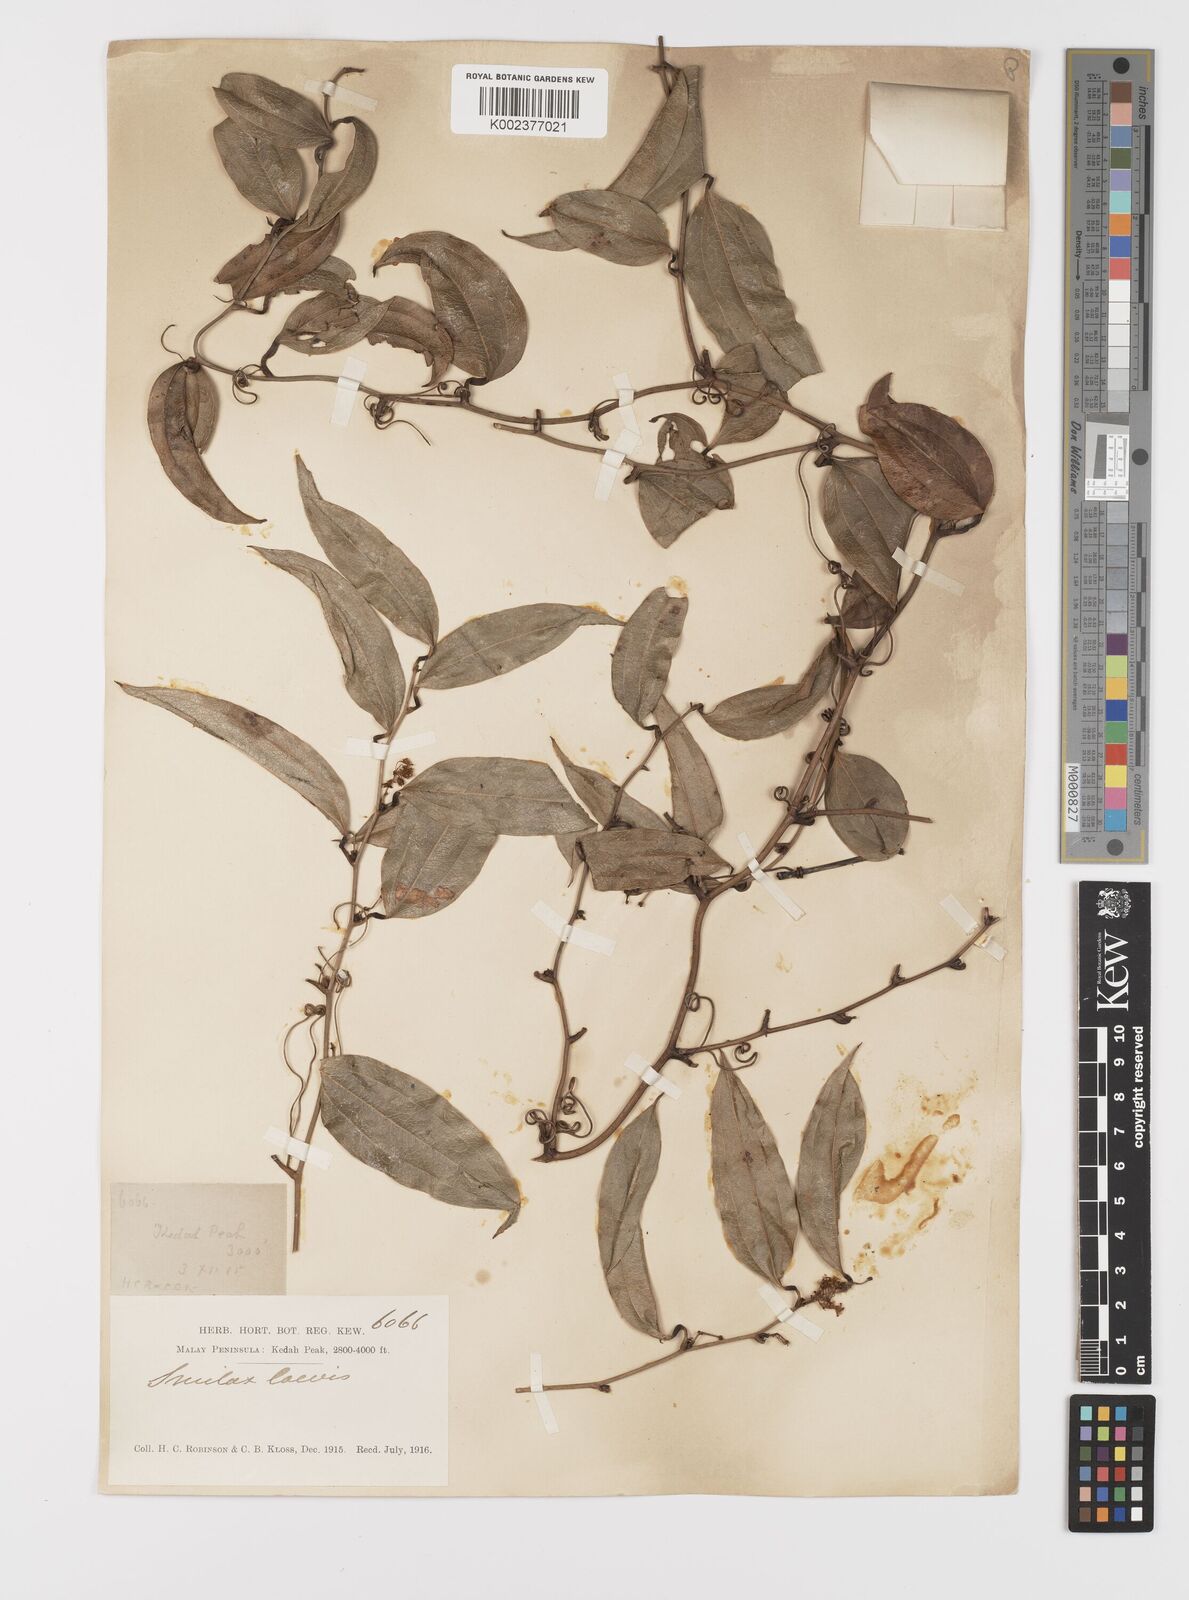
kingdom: Plantae
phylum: Tracheophyta
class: Liliopsida
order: Liliales
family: Smilacaceae
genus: Smilax
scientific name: Smilax laevis
